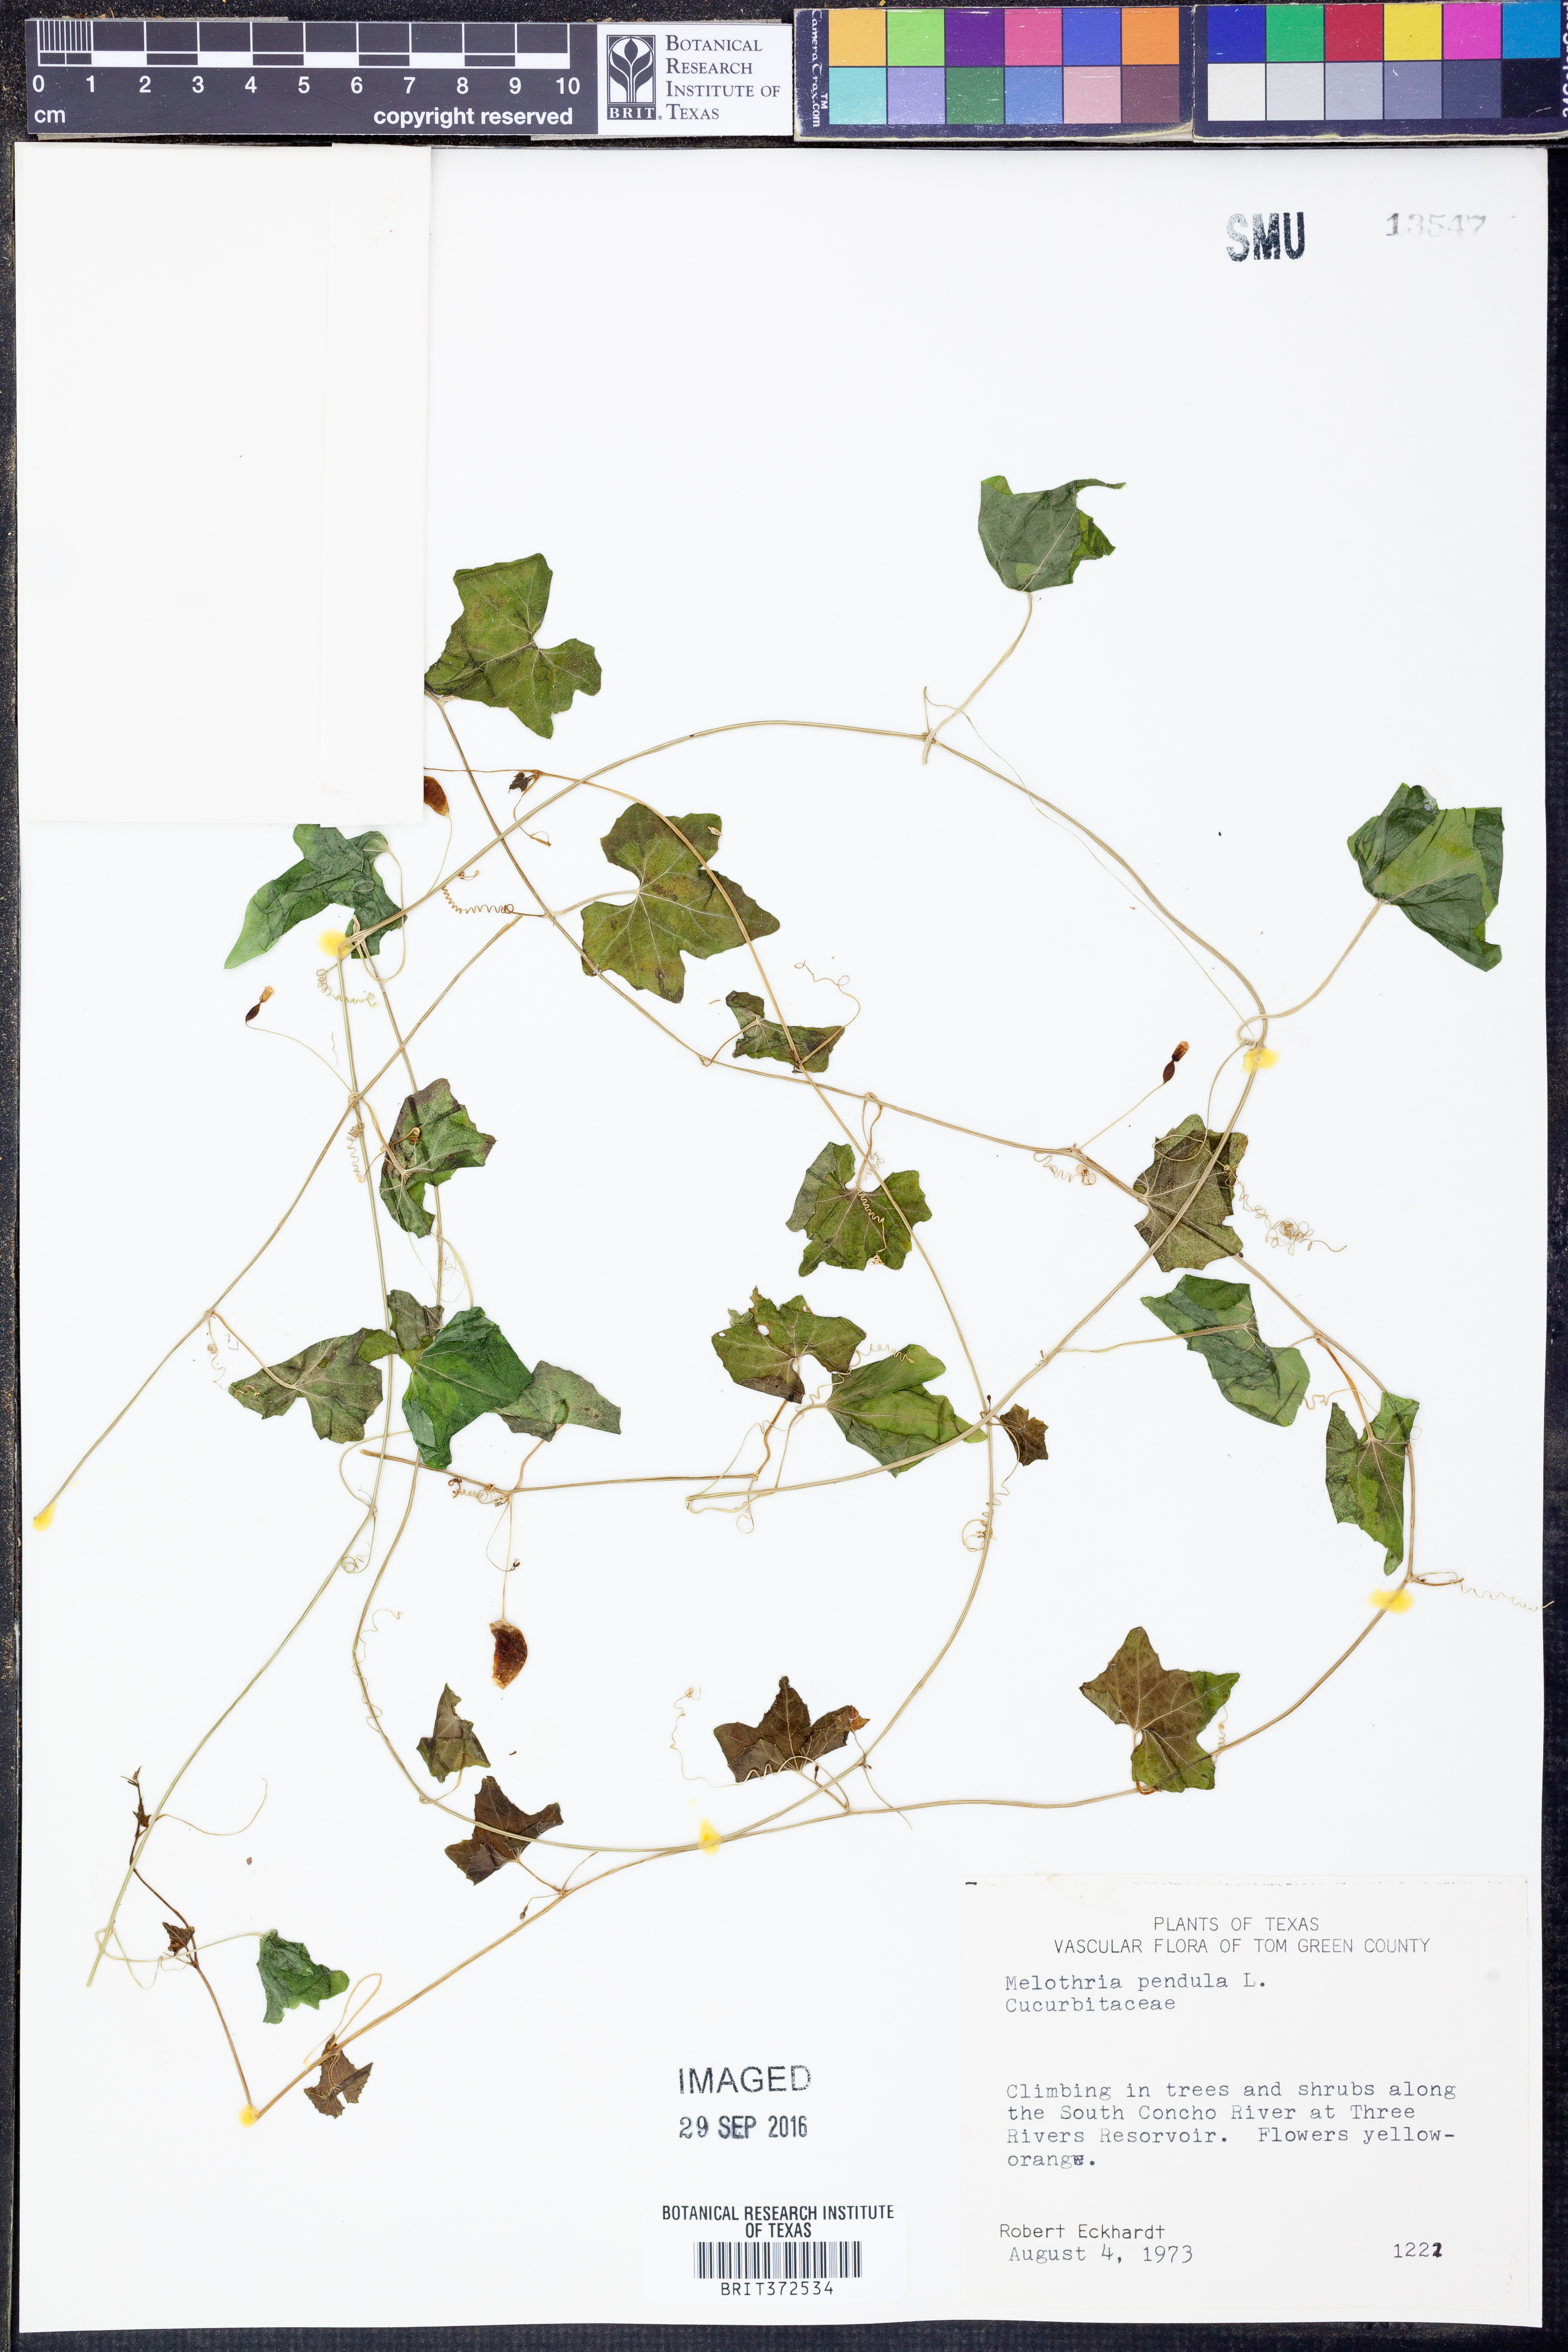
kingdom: Plantae
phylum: Tracheophyta
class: Magnoliopsida
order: Cucurbitales
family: Cucurbitaceae
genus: Melothria
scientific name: Melothria pendula
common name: Creeping-cucumber
